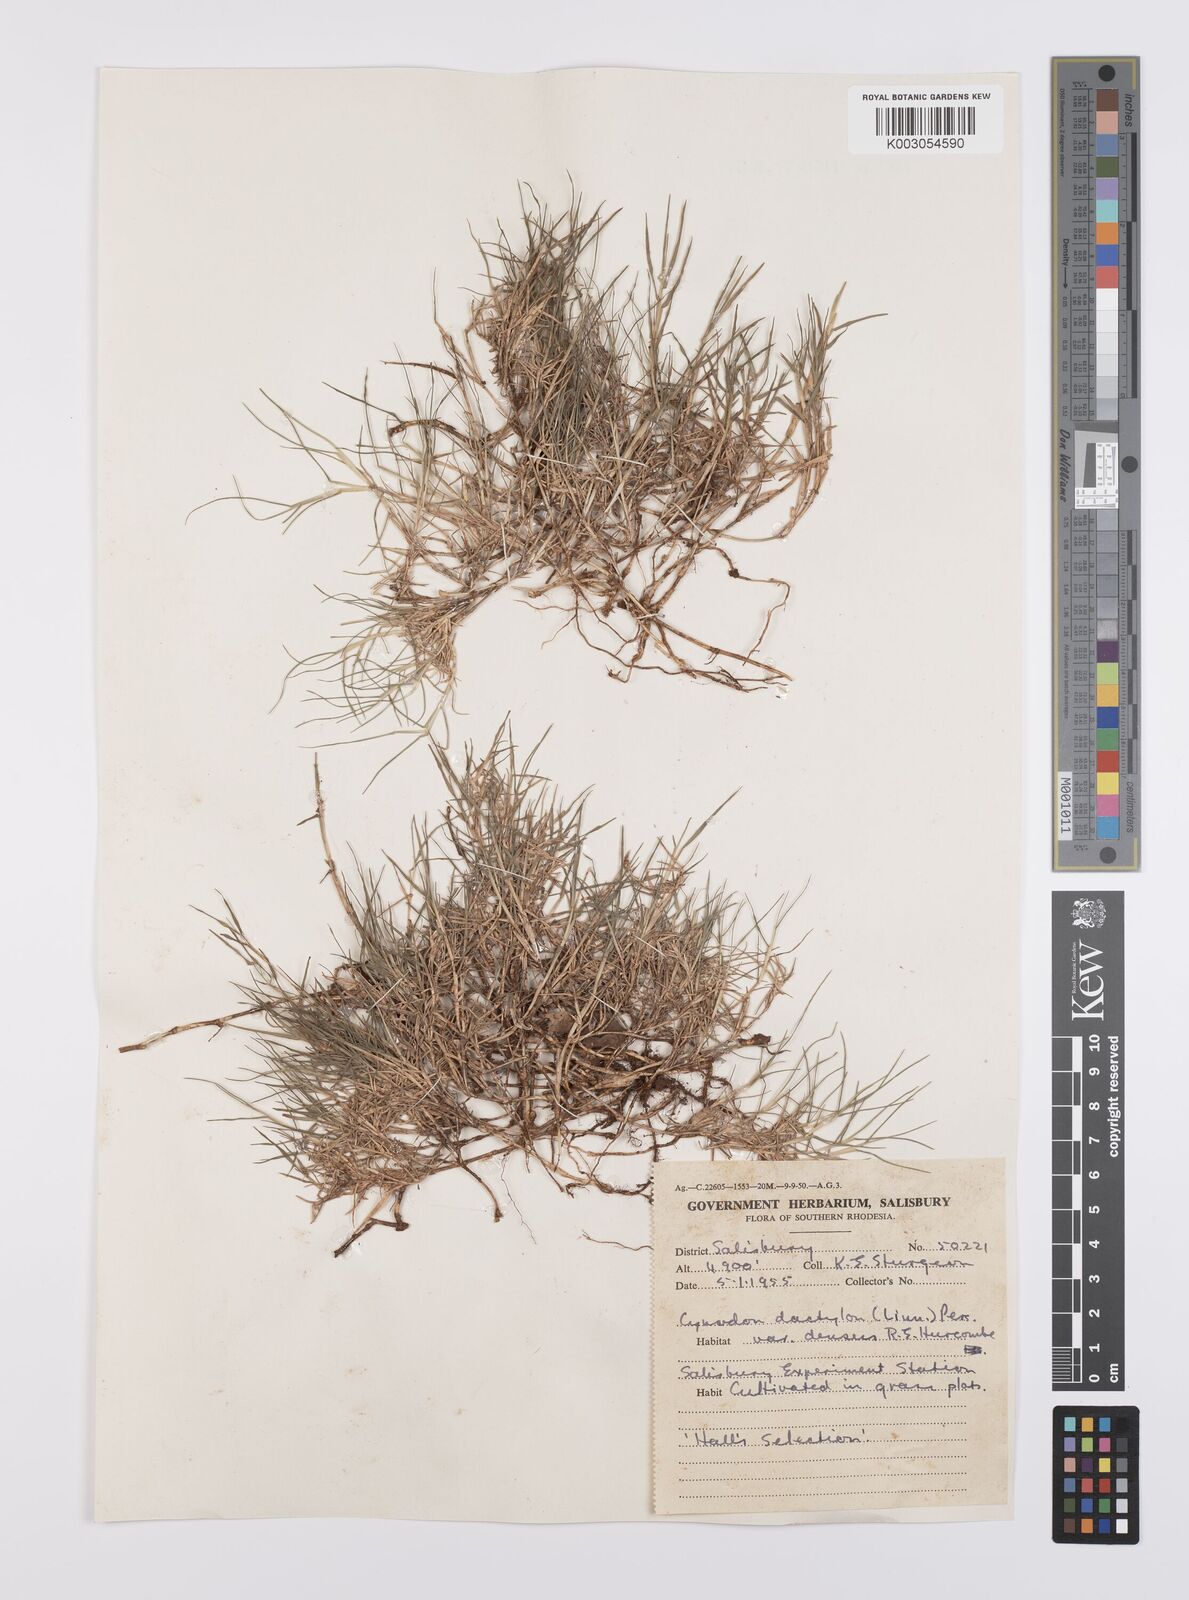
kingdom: Plantae
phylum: Tracheophyta
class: Liliopsida
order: Poales
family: Poaceae
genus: Cynodon
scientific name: Cynodon dactylon
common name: Bermuda grass
